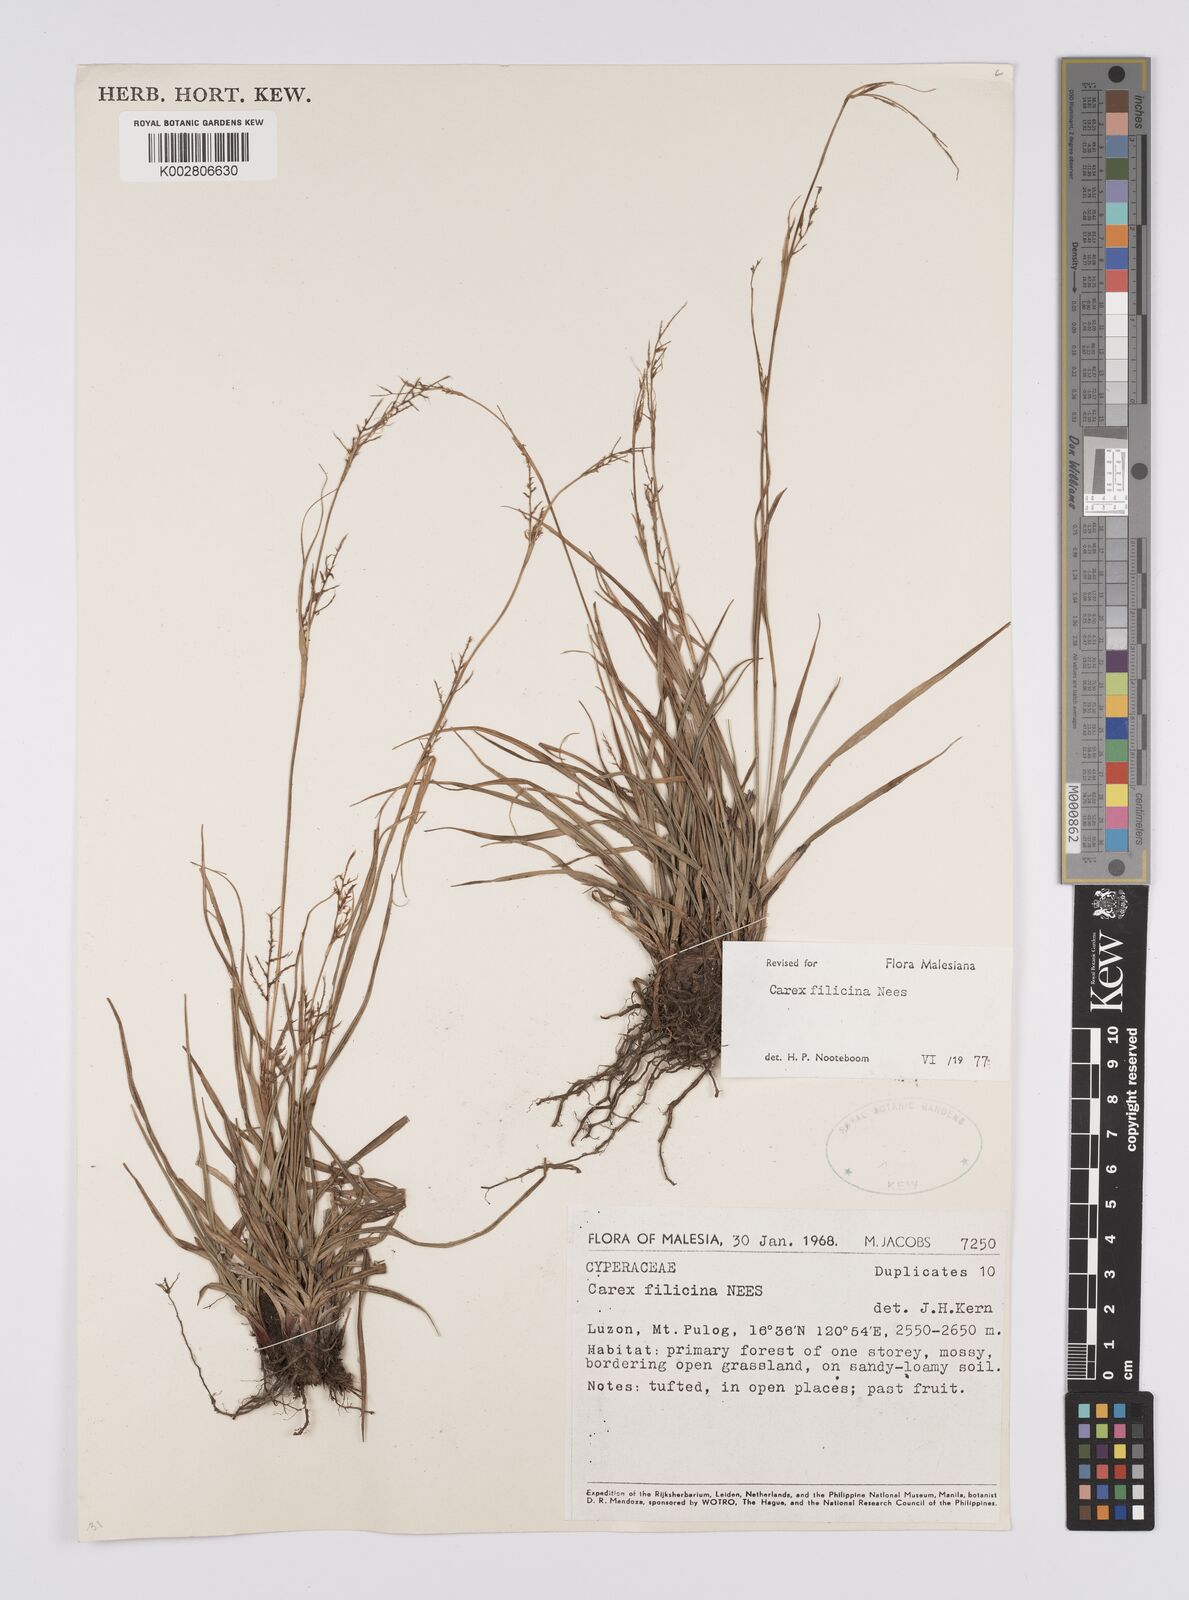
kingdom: Plantae
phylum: Tracheophyta
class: Liliopsida
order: Poales
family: Cyperaceae
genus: Carex
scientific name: Carex filicina
